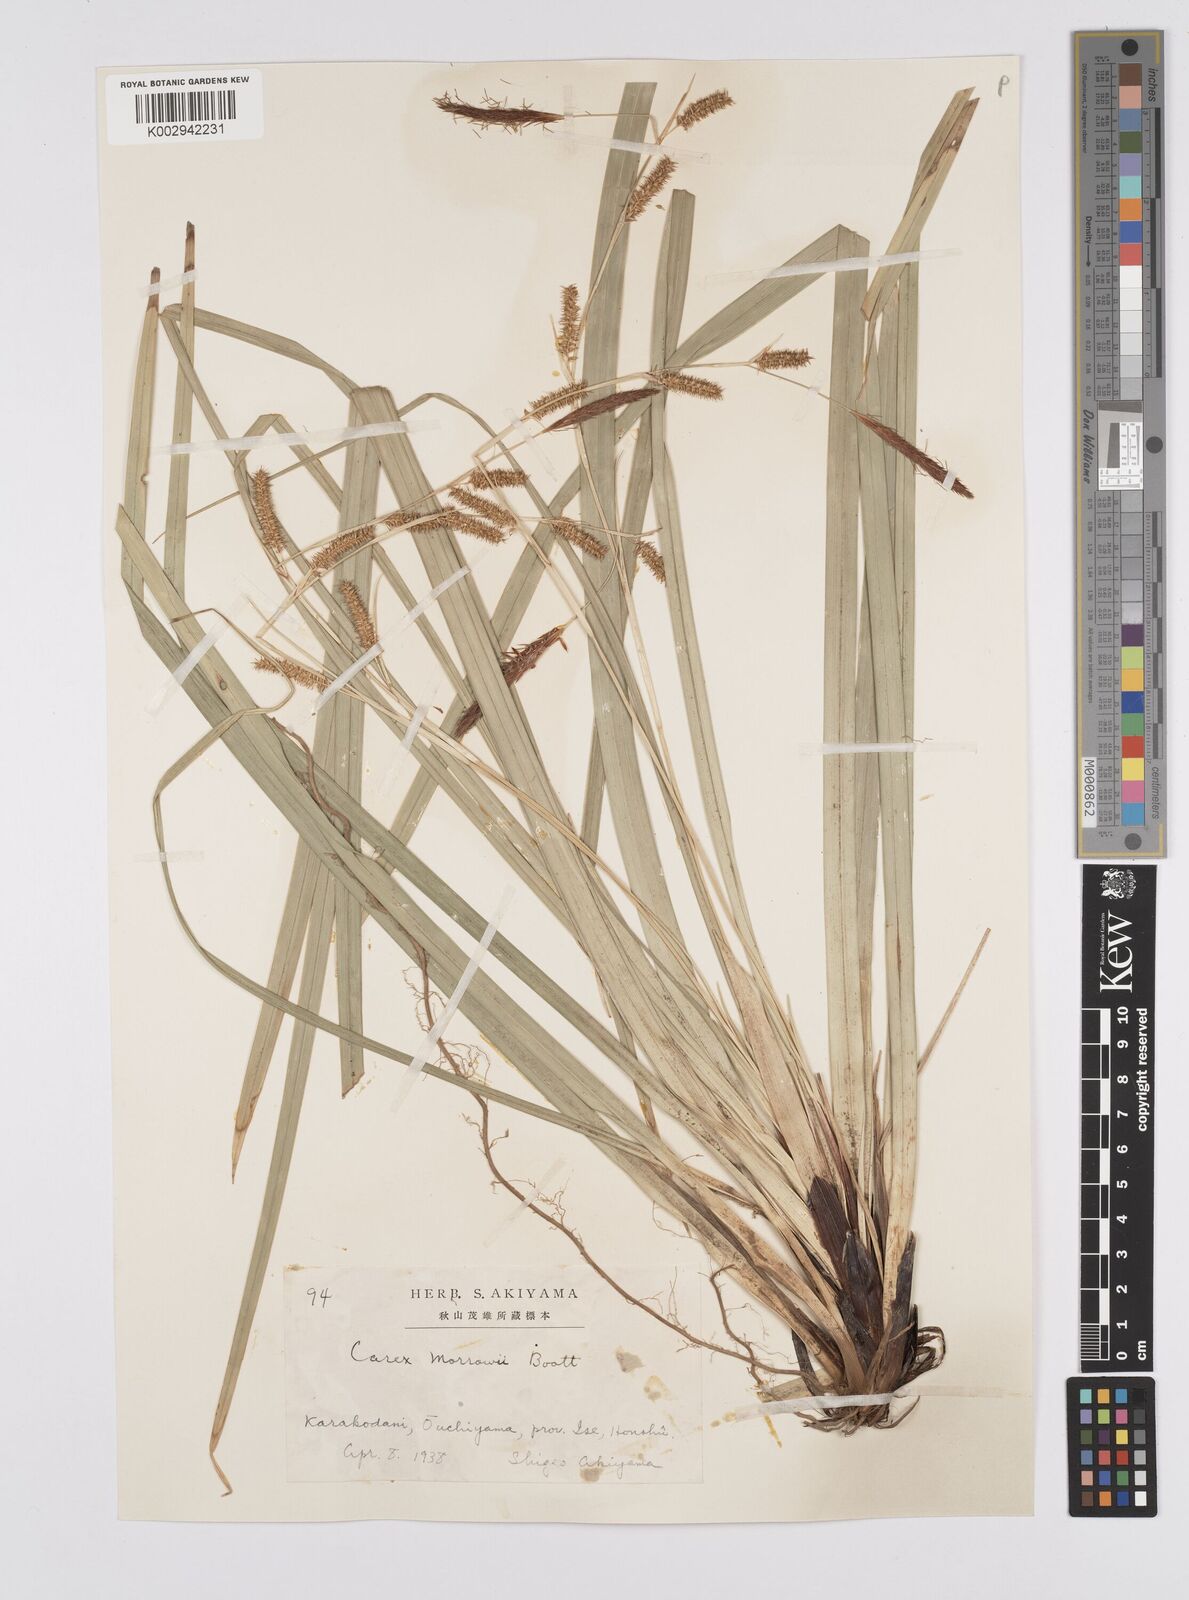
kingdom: Plantae
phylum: Tracheophyta
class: Liliopsida
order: Poales
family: Cyperaceae
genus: Carex
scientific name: Carex morrowii
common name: Japanese sedge
